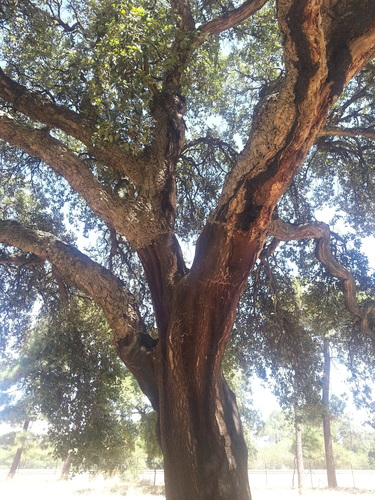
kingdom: Plantae
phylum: Tracheophyta
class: Magnoliopsida
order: Fagales
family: Fagaceae
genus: Quercus
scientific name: Quercus suber
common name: Cork oak
